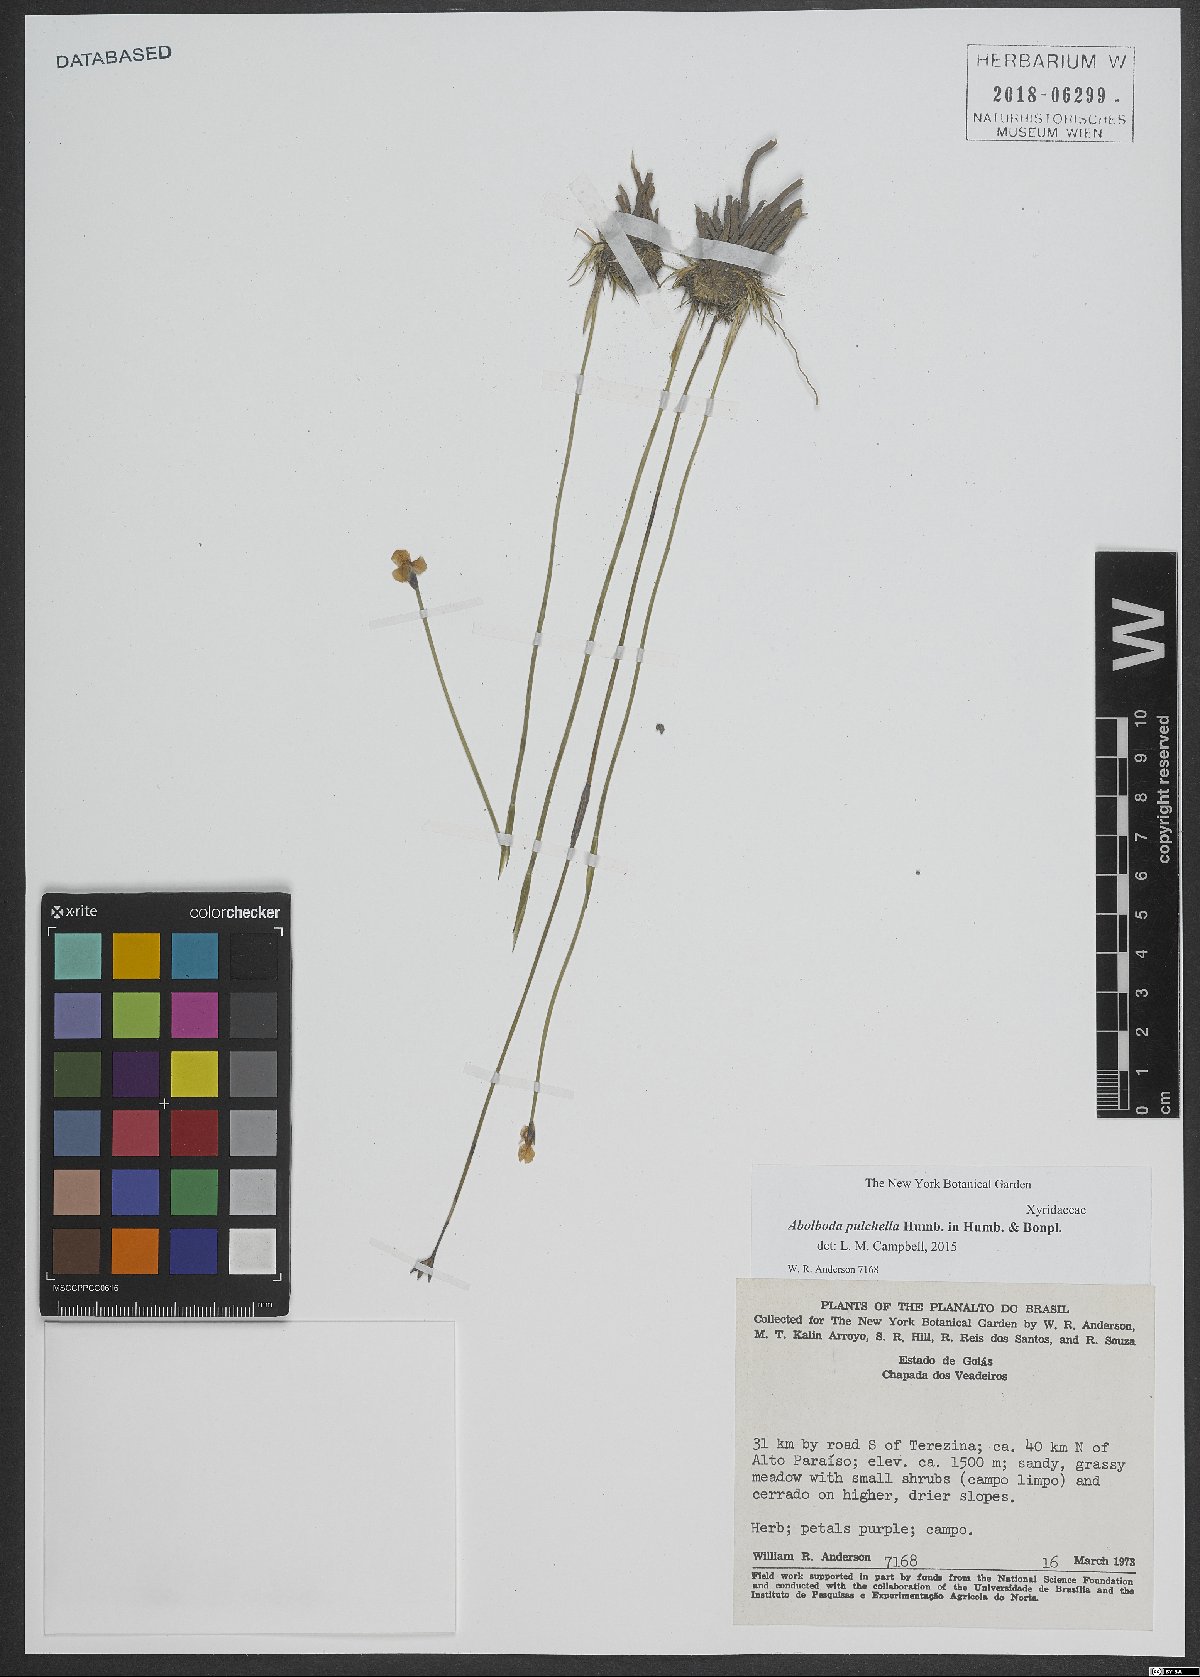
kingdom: Plantae
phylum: Tracheophyta
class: Liliopsida
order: Poales
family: Xyridaceae
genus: Abolboda
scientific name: Abolboda pulchella
